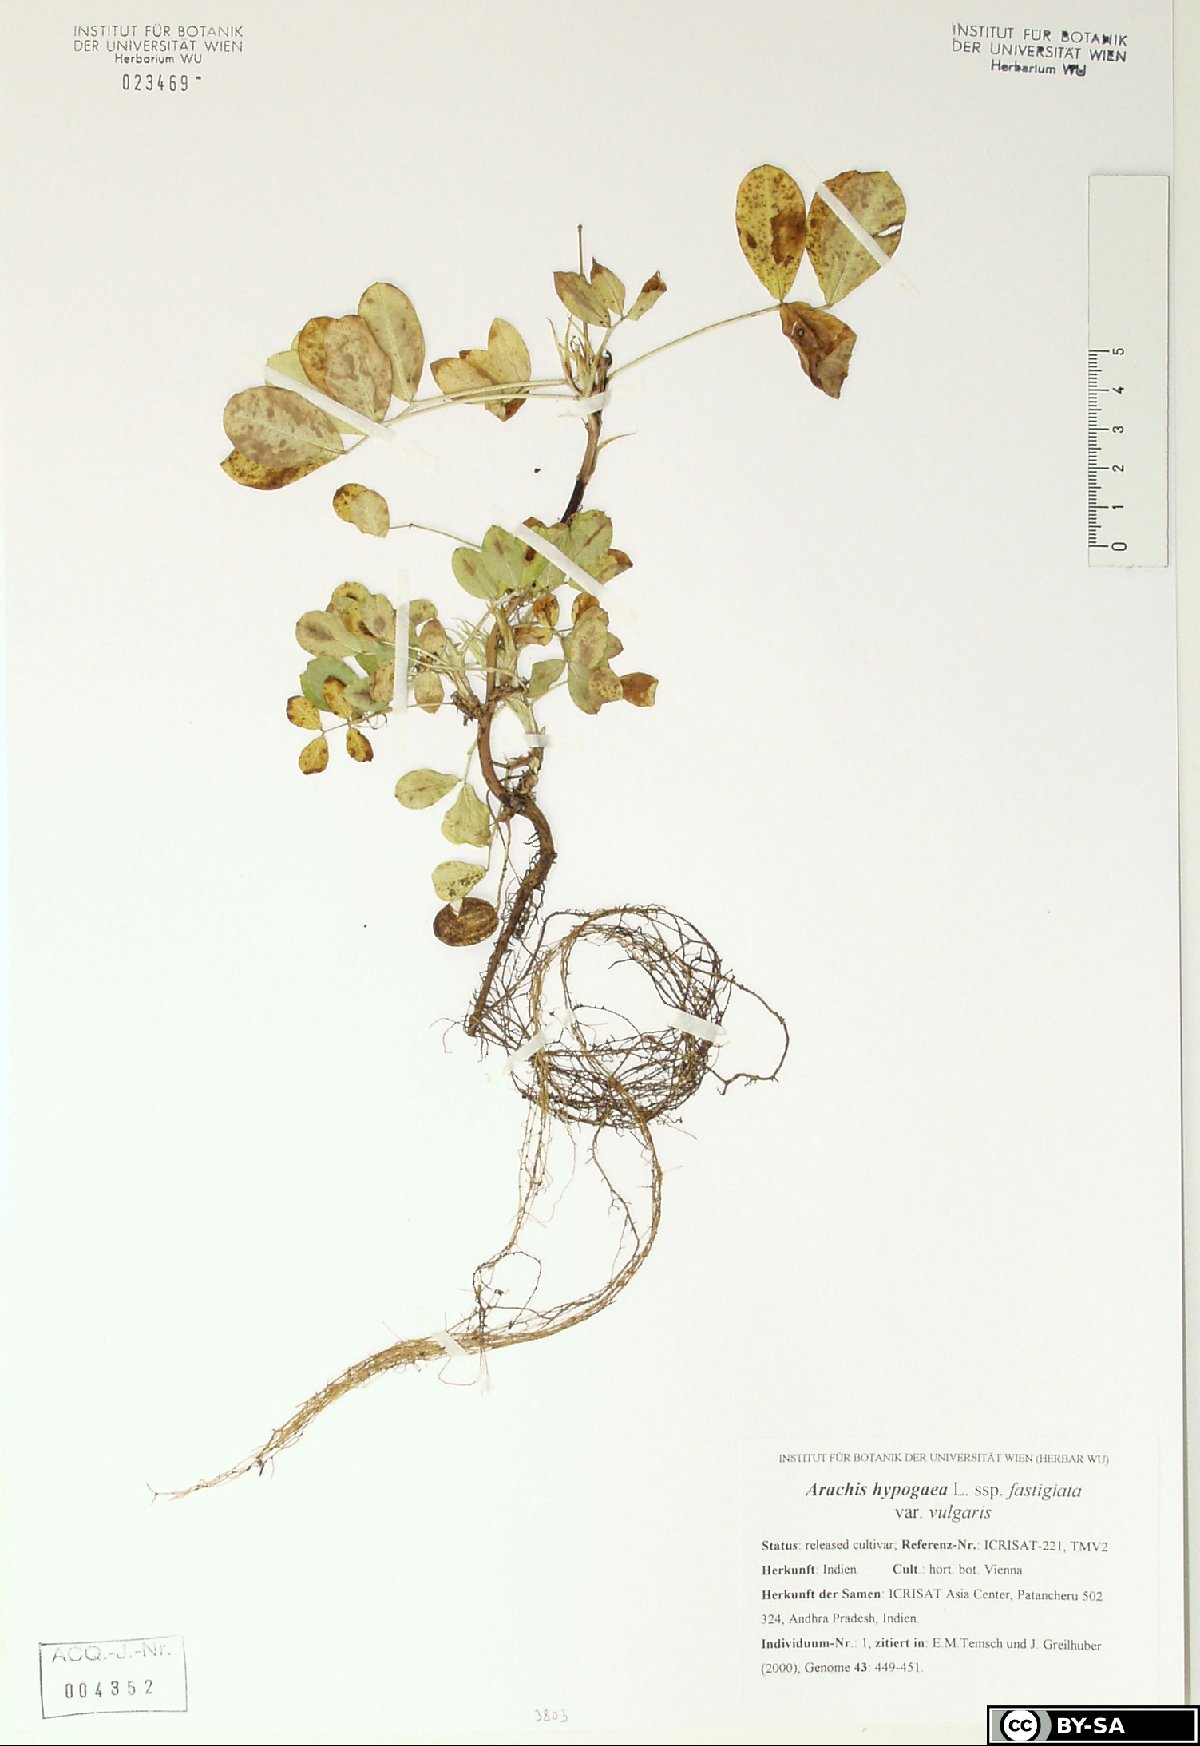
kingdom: Plantae
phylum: Tracheophyta
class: Magnoliopsida
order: Fabales
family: Fabaceae
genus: Arachis
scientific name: Arachis hypogaea
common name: Peanut
